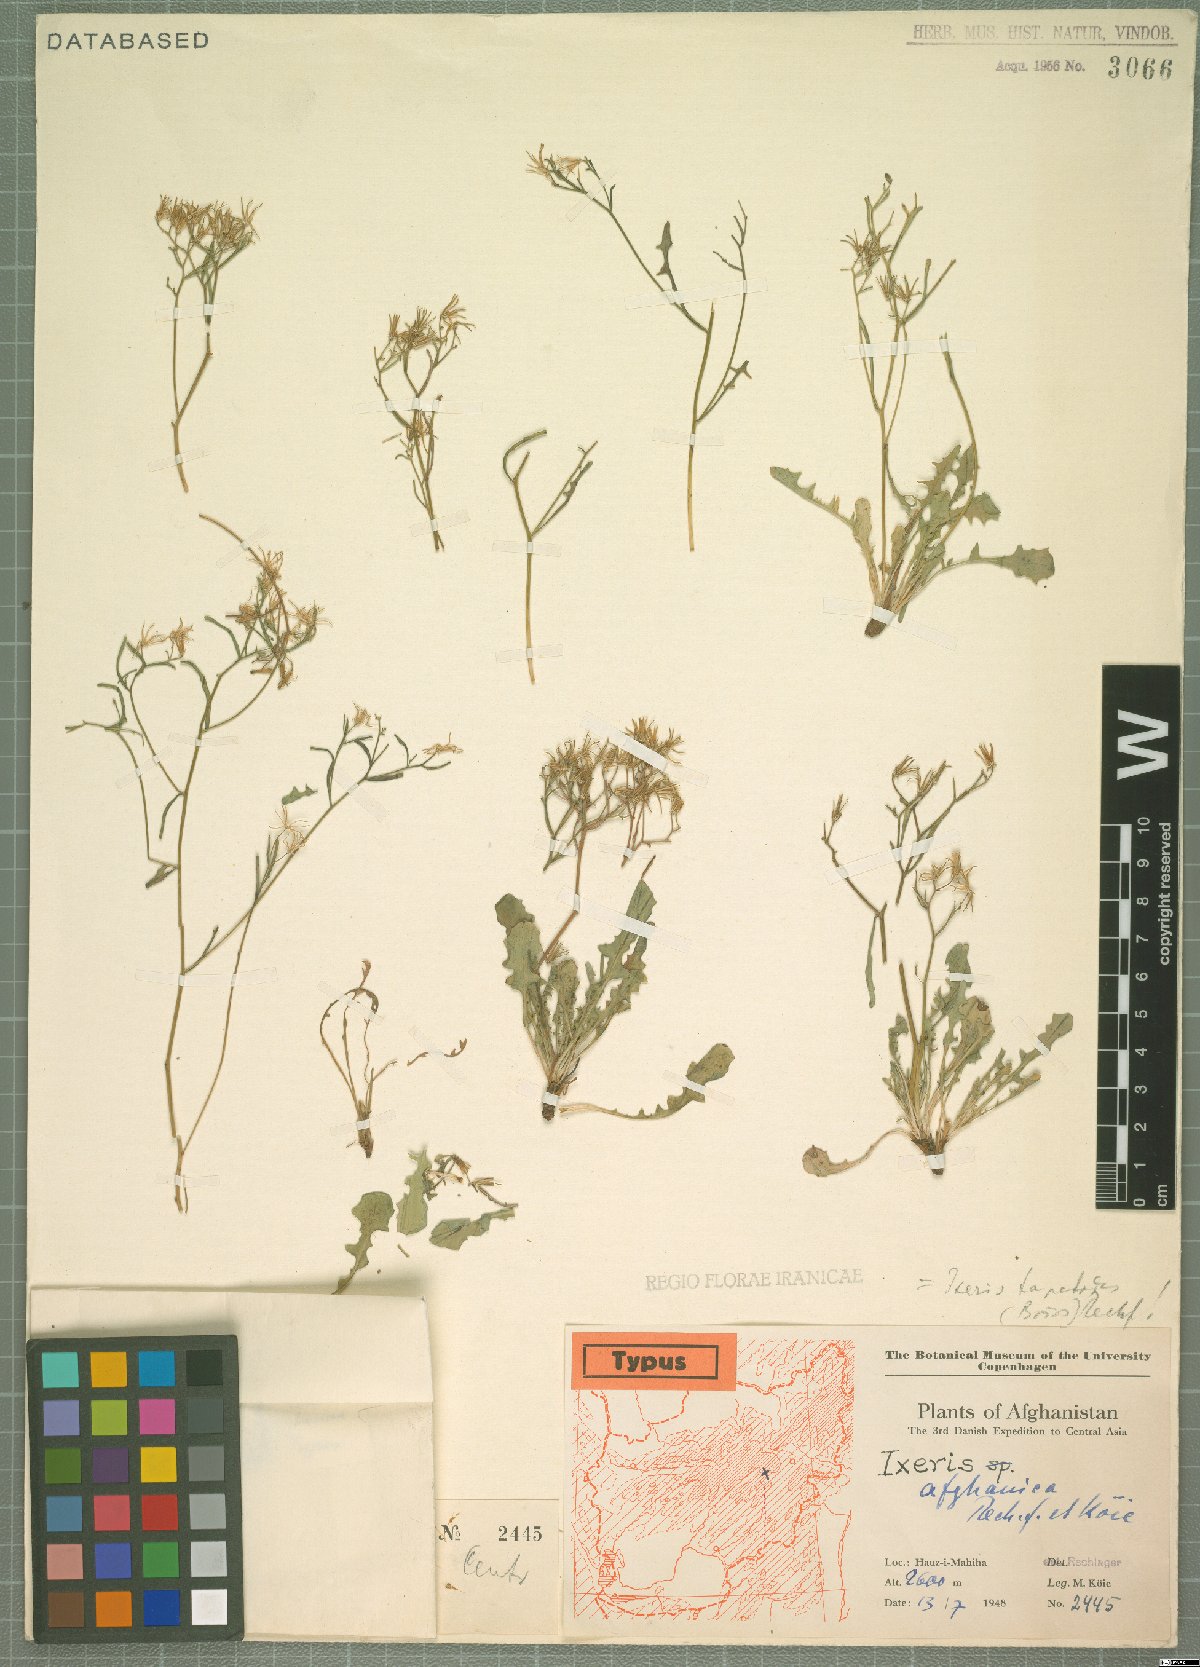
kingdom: Plantae
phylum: Tracheophyta
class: Magnoliopsida
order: Asterales
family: Asteraceae
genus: Ixeris
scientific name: Ixeris tapetodes
